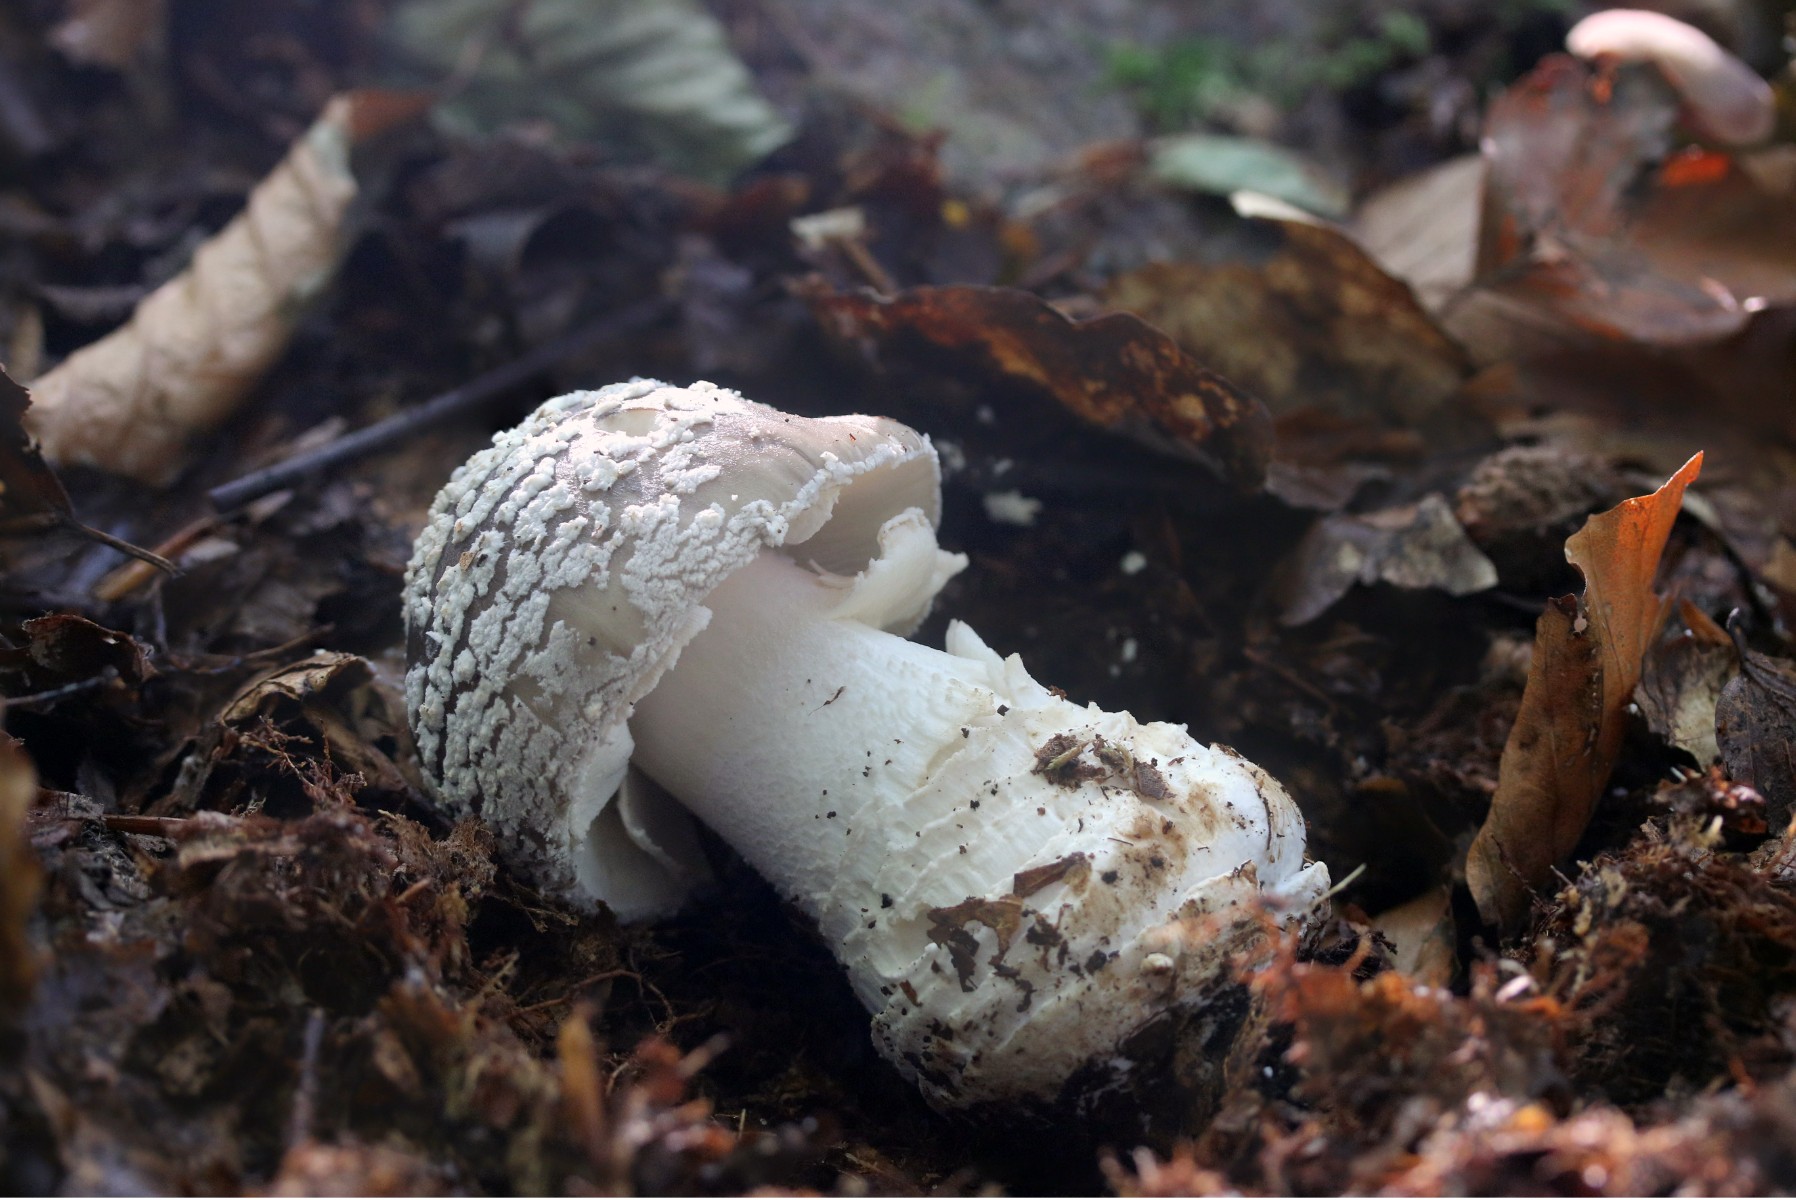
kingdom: Fungi
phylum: Basidiomycota
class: Agaricomycetes
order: Agaricales
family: Amanitaceae
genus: Amanita
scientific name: Amanita
